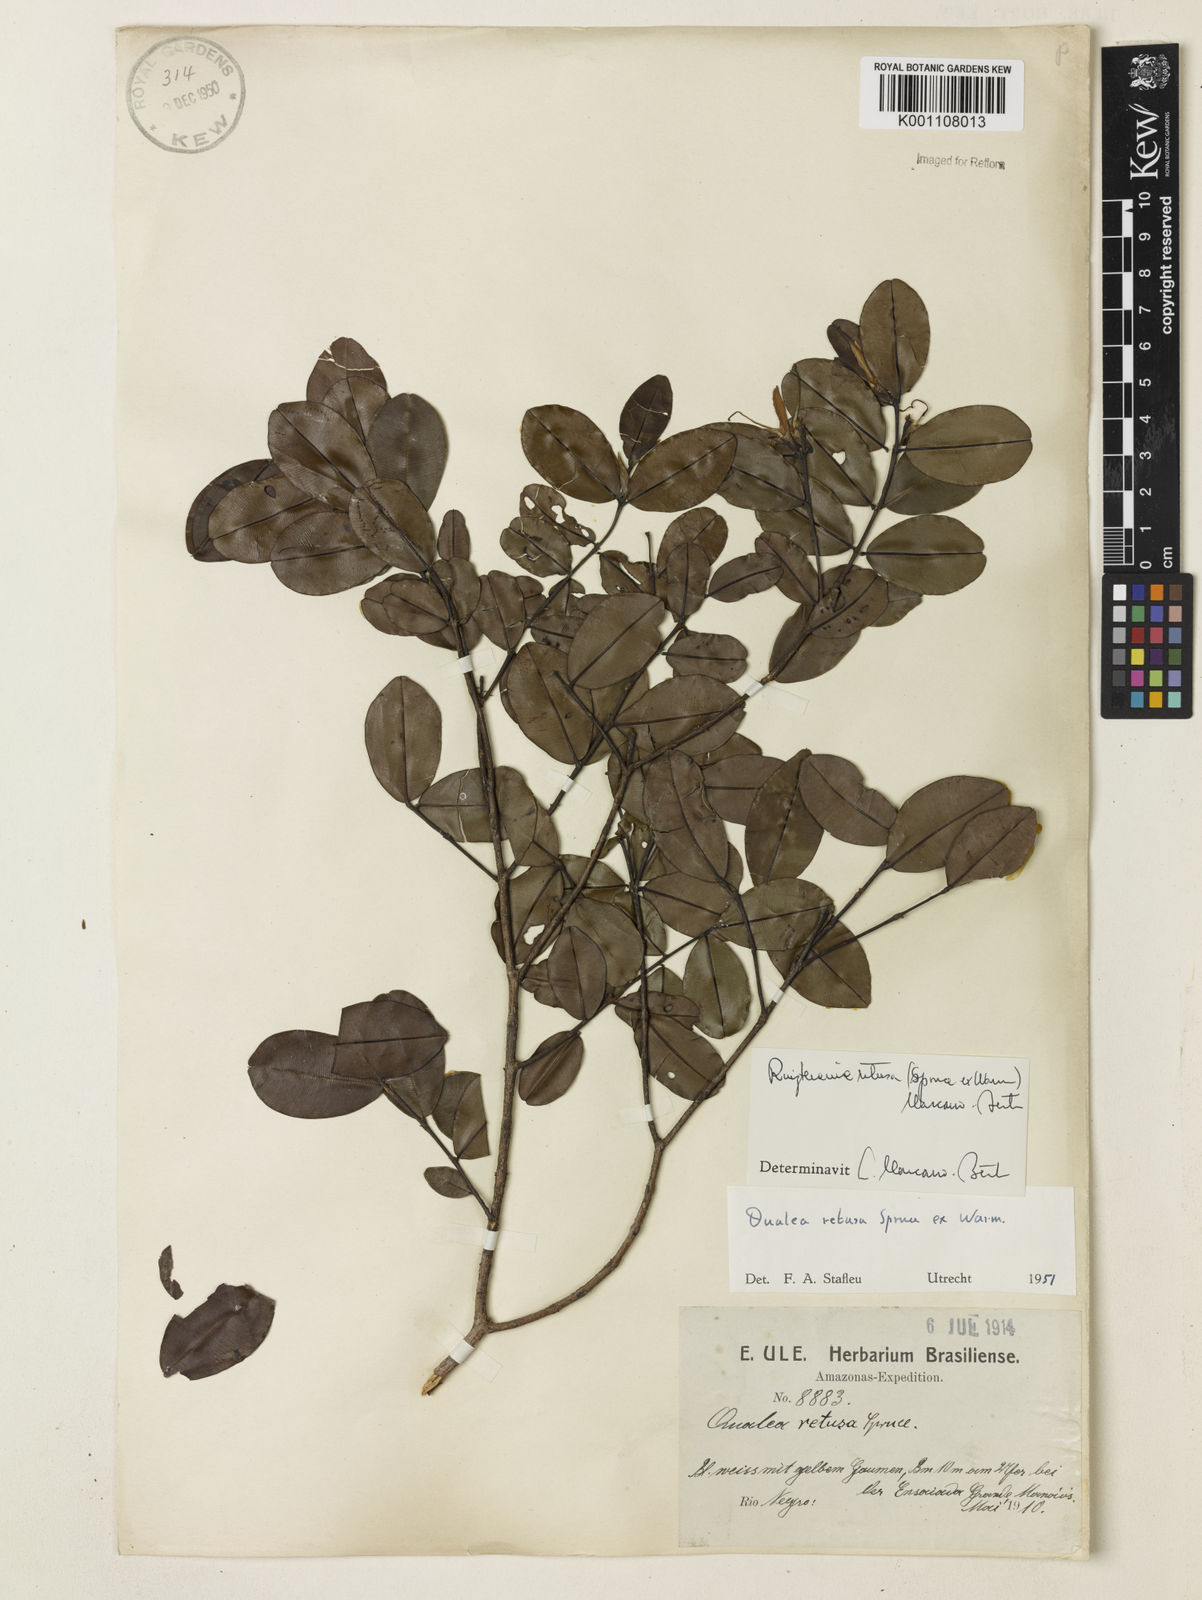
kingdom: Plantae
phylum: Tracheophyta
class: Magnoliopsida
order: Myrtales
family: Vochysiaceae
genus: Ruizterania
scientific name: Ruizterania retusa
